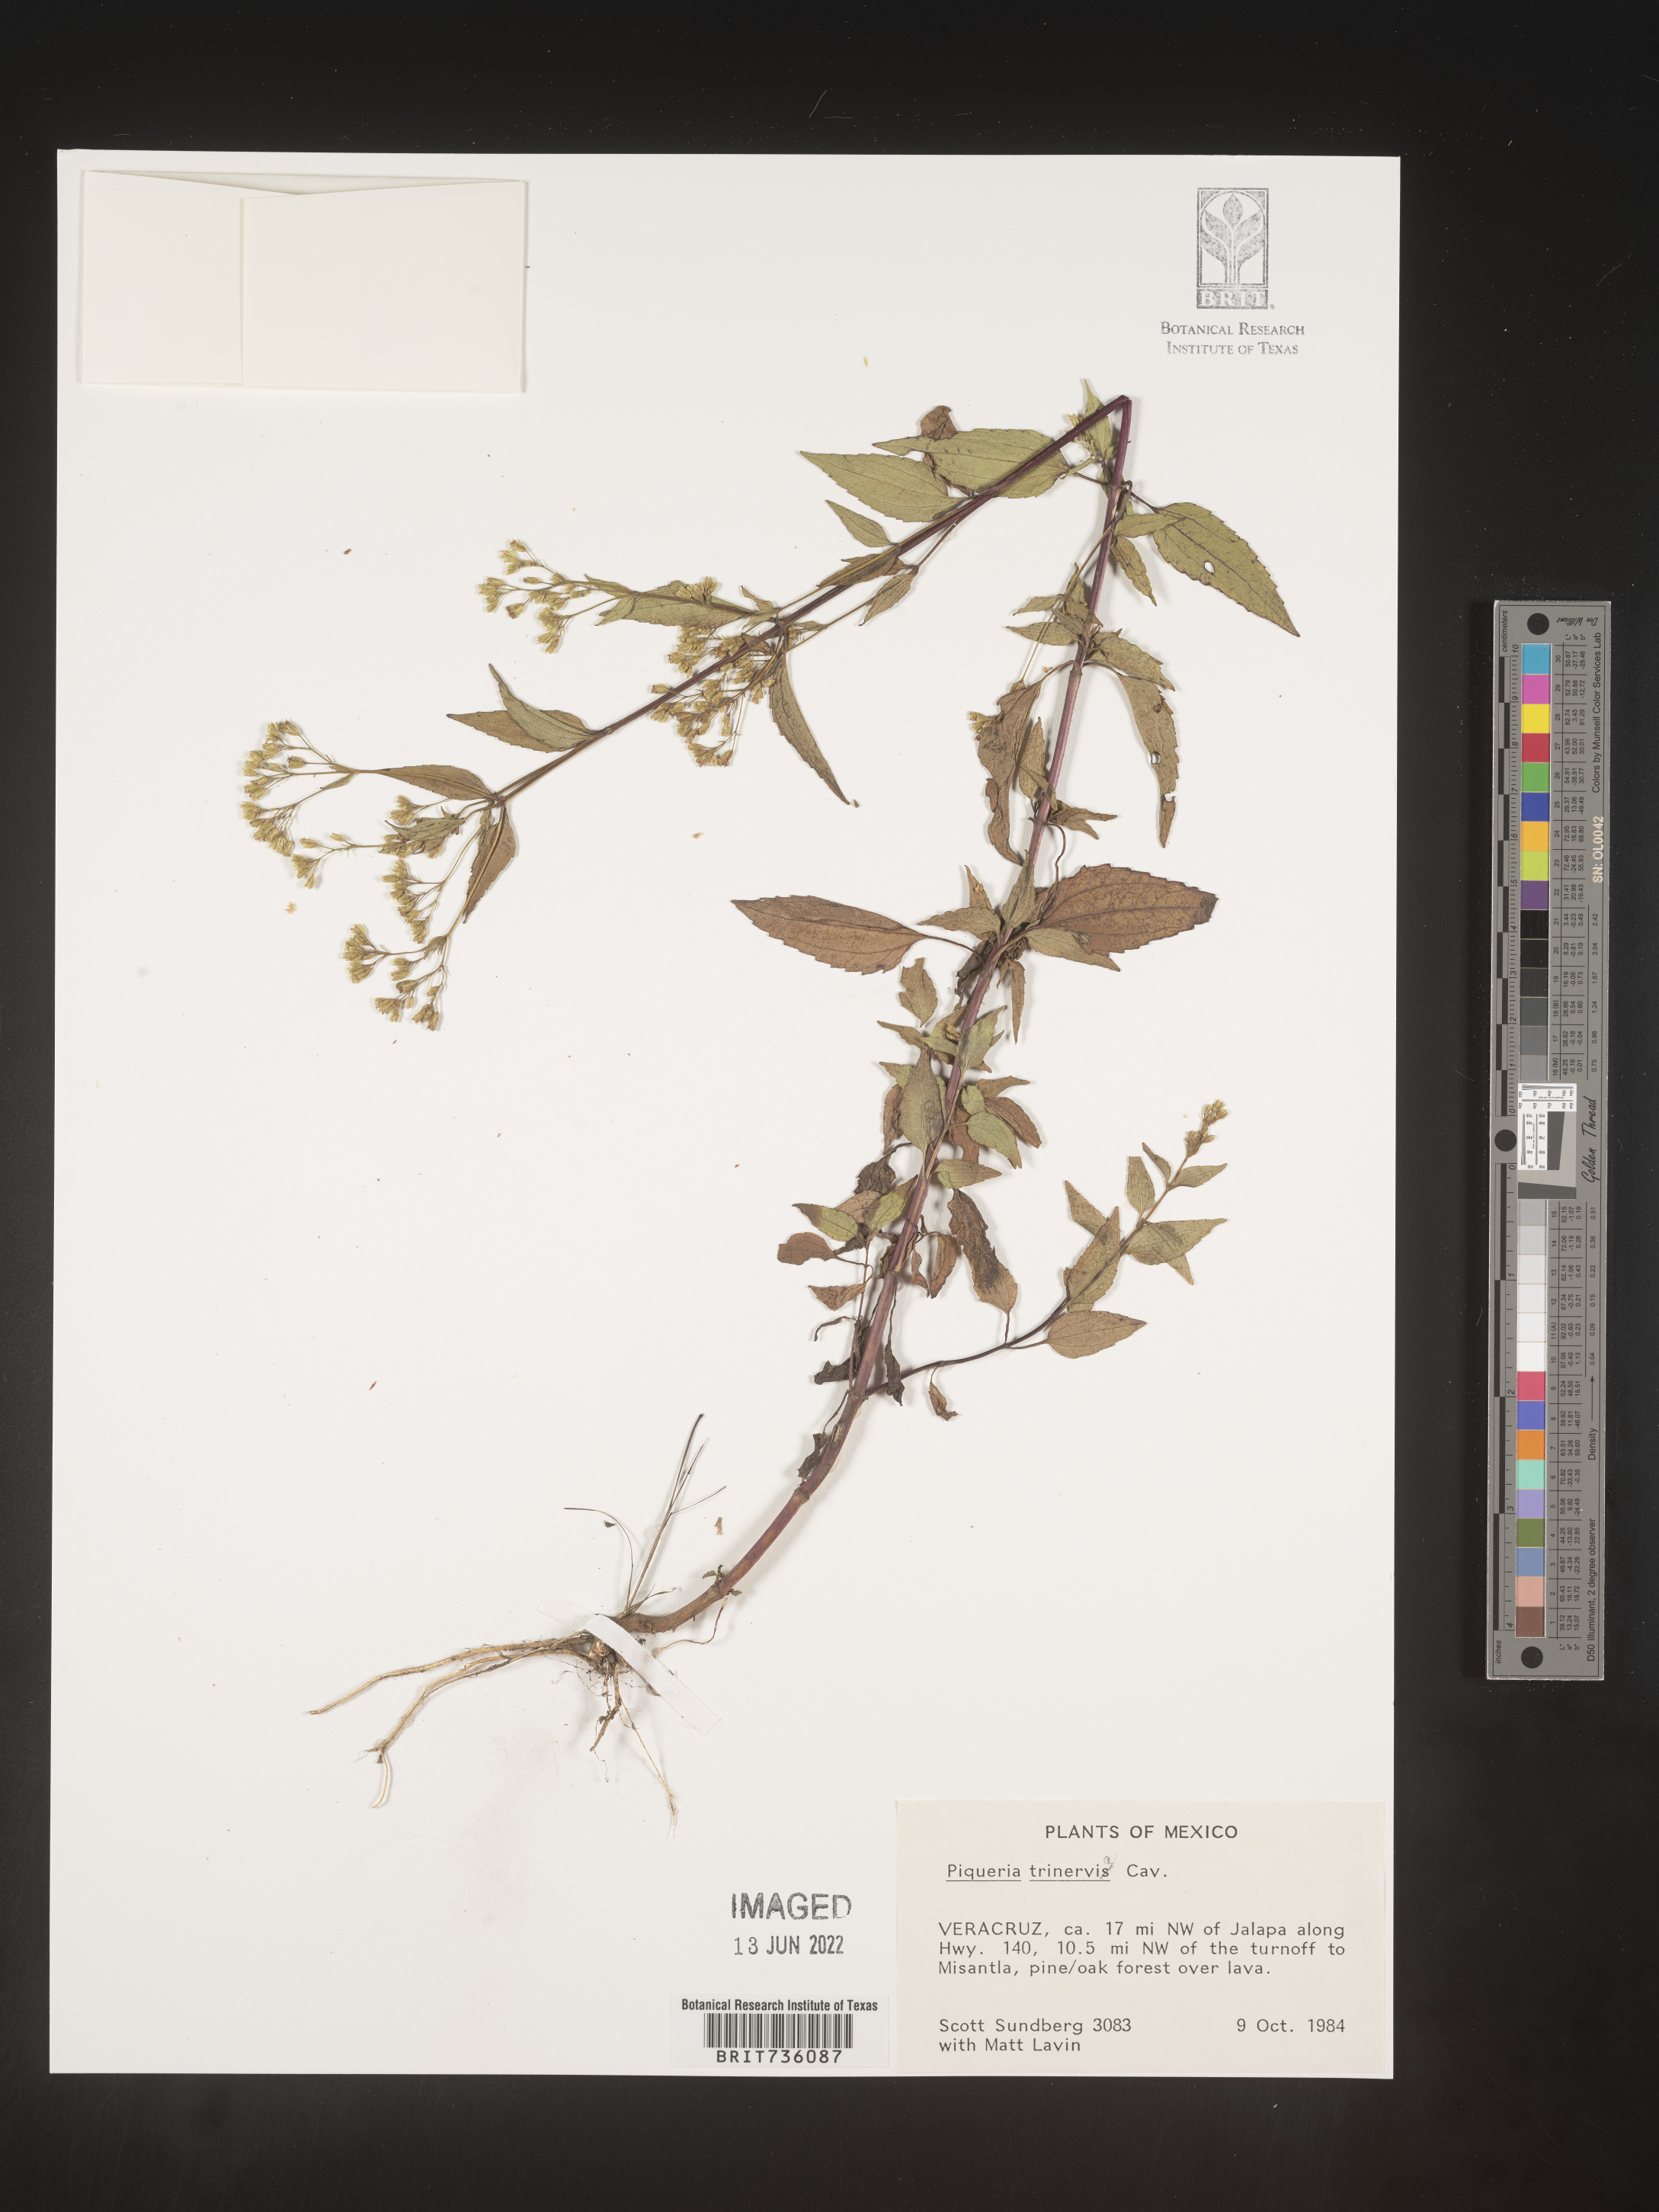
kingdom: Plantae
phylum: Tracheophyta
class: Magnoliopsida
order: Asterales
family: Asteraceae
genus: Piqueria
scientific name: Piqueria
